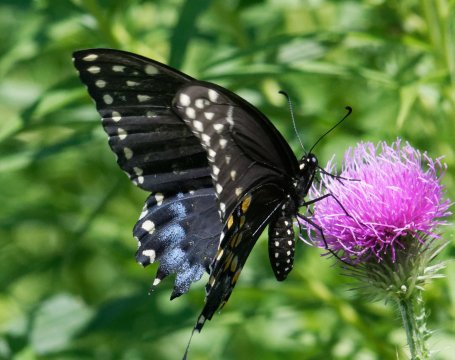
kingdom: Animalia
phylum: Arthropoda
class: Insecta
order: Lepidoptera
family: Papilionidae
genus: Papilio
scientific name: Papilio polyxenes
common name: Black Swallowtail
